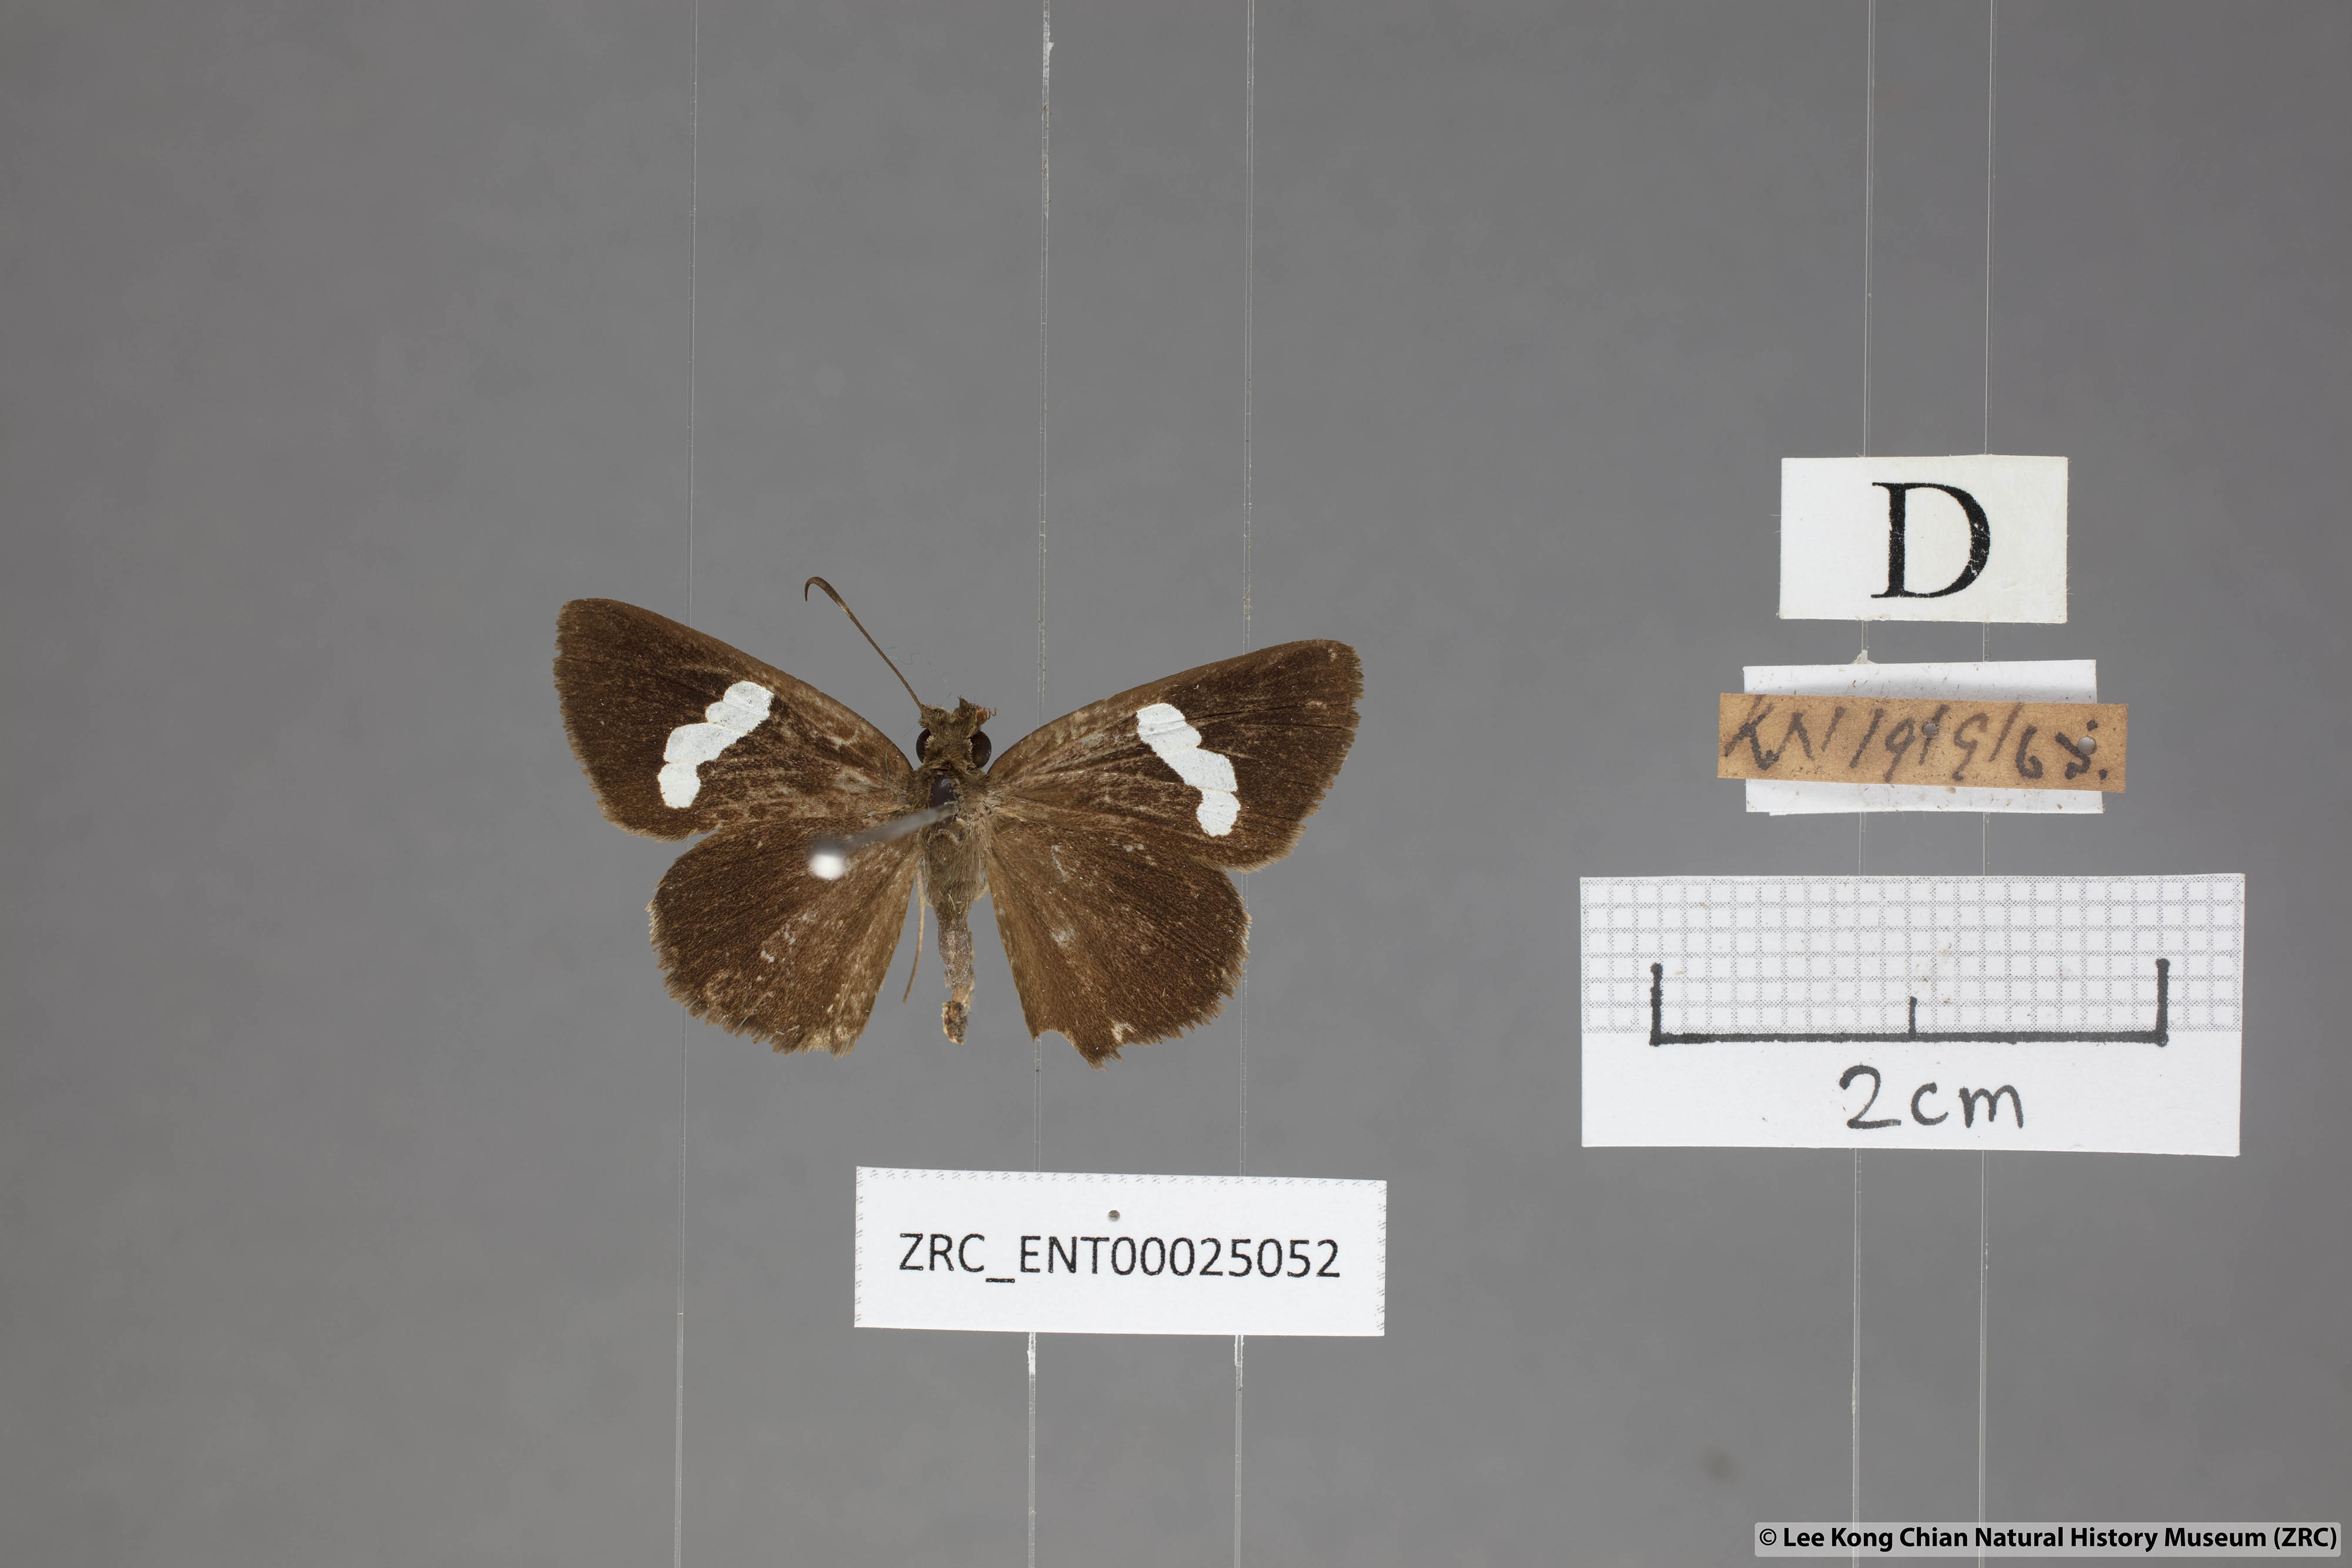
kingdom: Animalia
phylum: Arthropoda
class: Insecta
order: Lepidoptera
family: Hesperiidae
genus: Notocrypta
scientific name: Notocrypta pria
